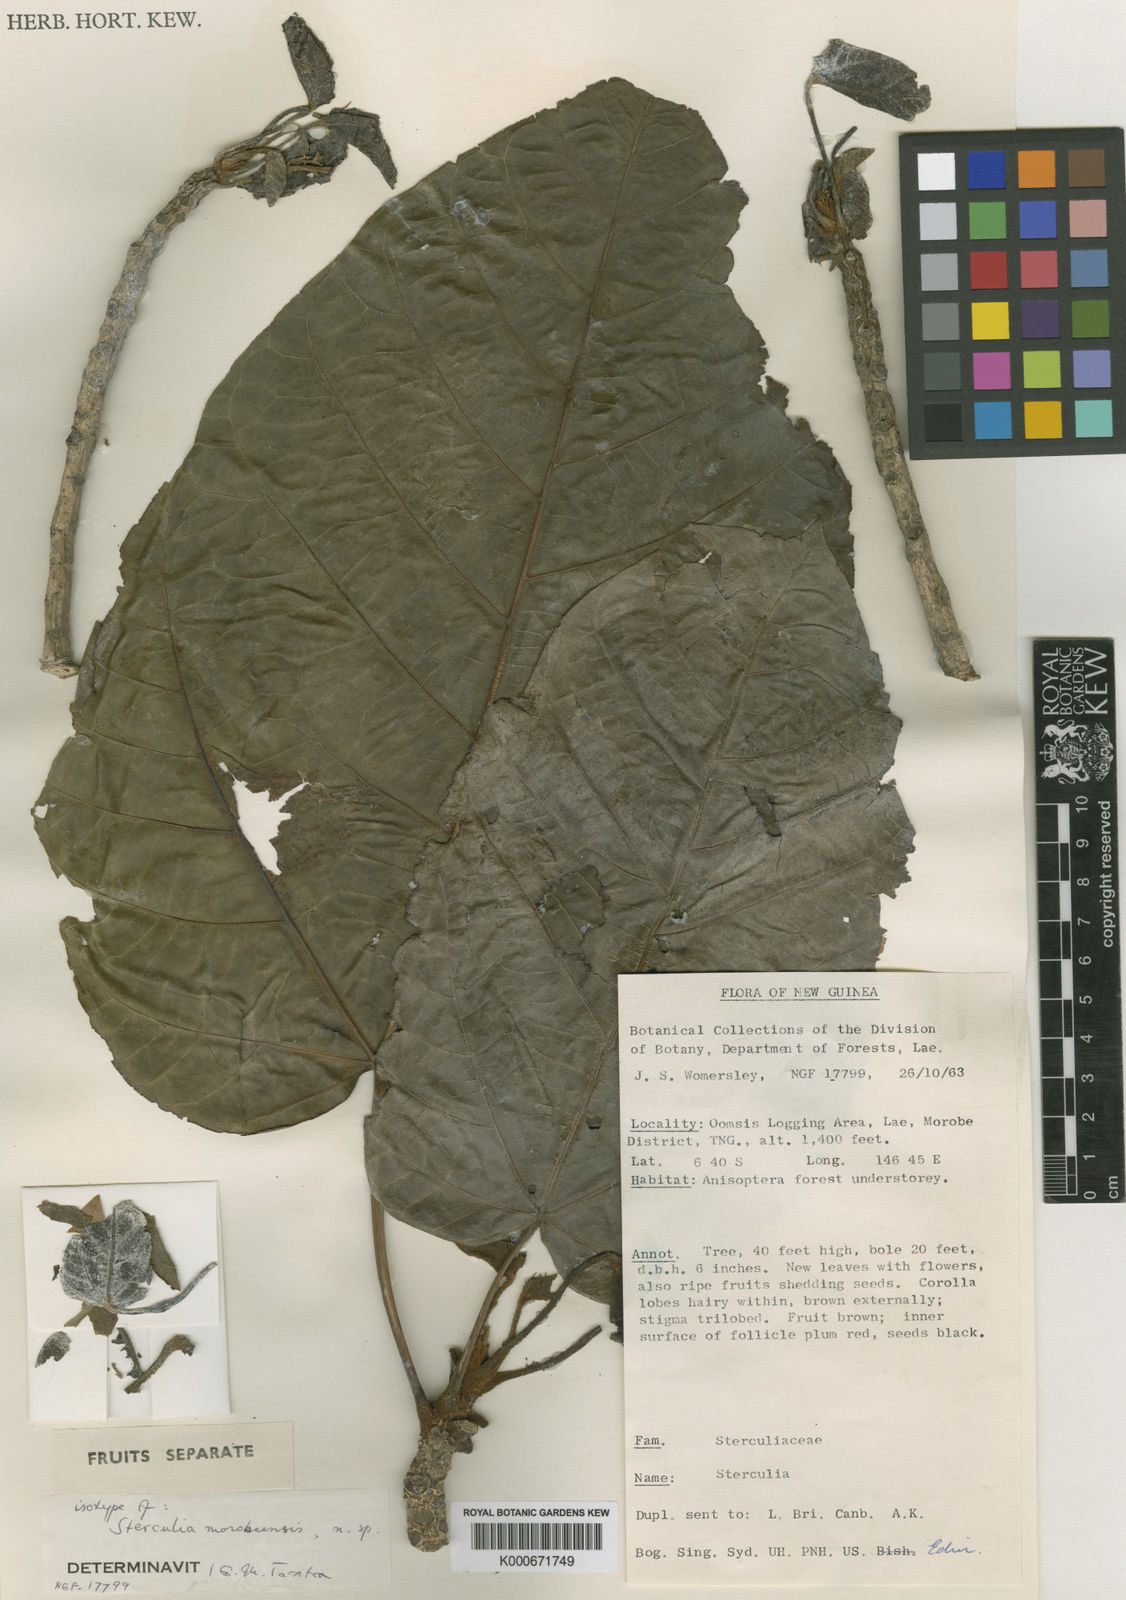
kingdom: Plantae
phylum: Tracheophyta
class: Magnoliopsida
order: Malvales
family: Malvaceae
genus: Sterculia
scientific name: Sterculia morobeensis
